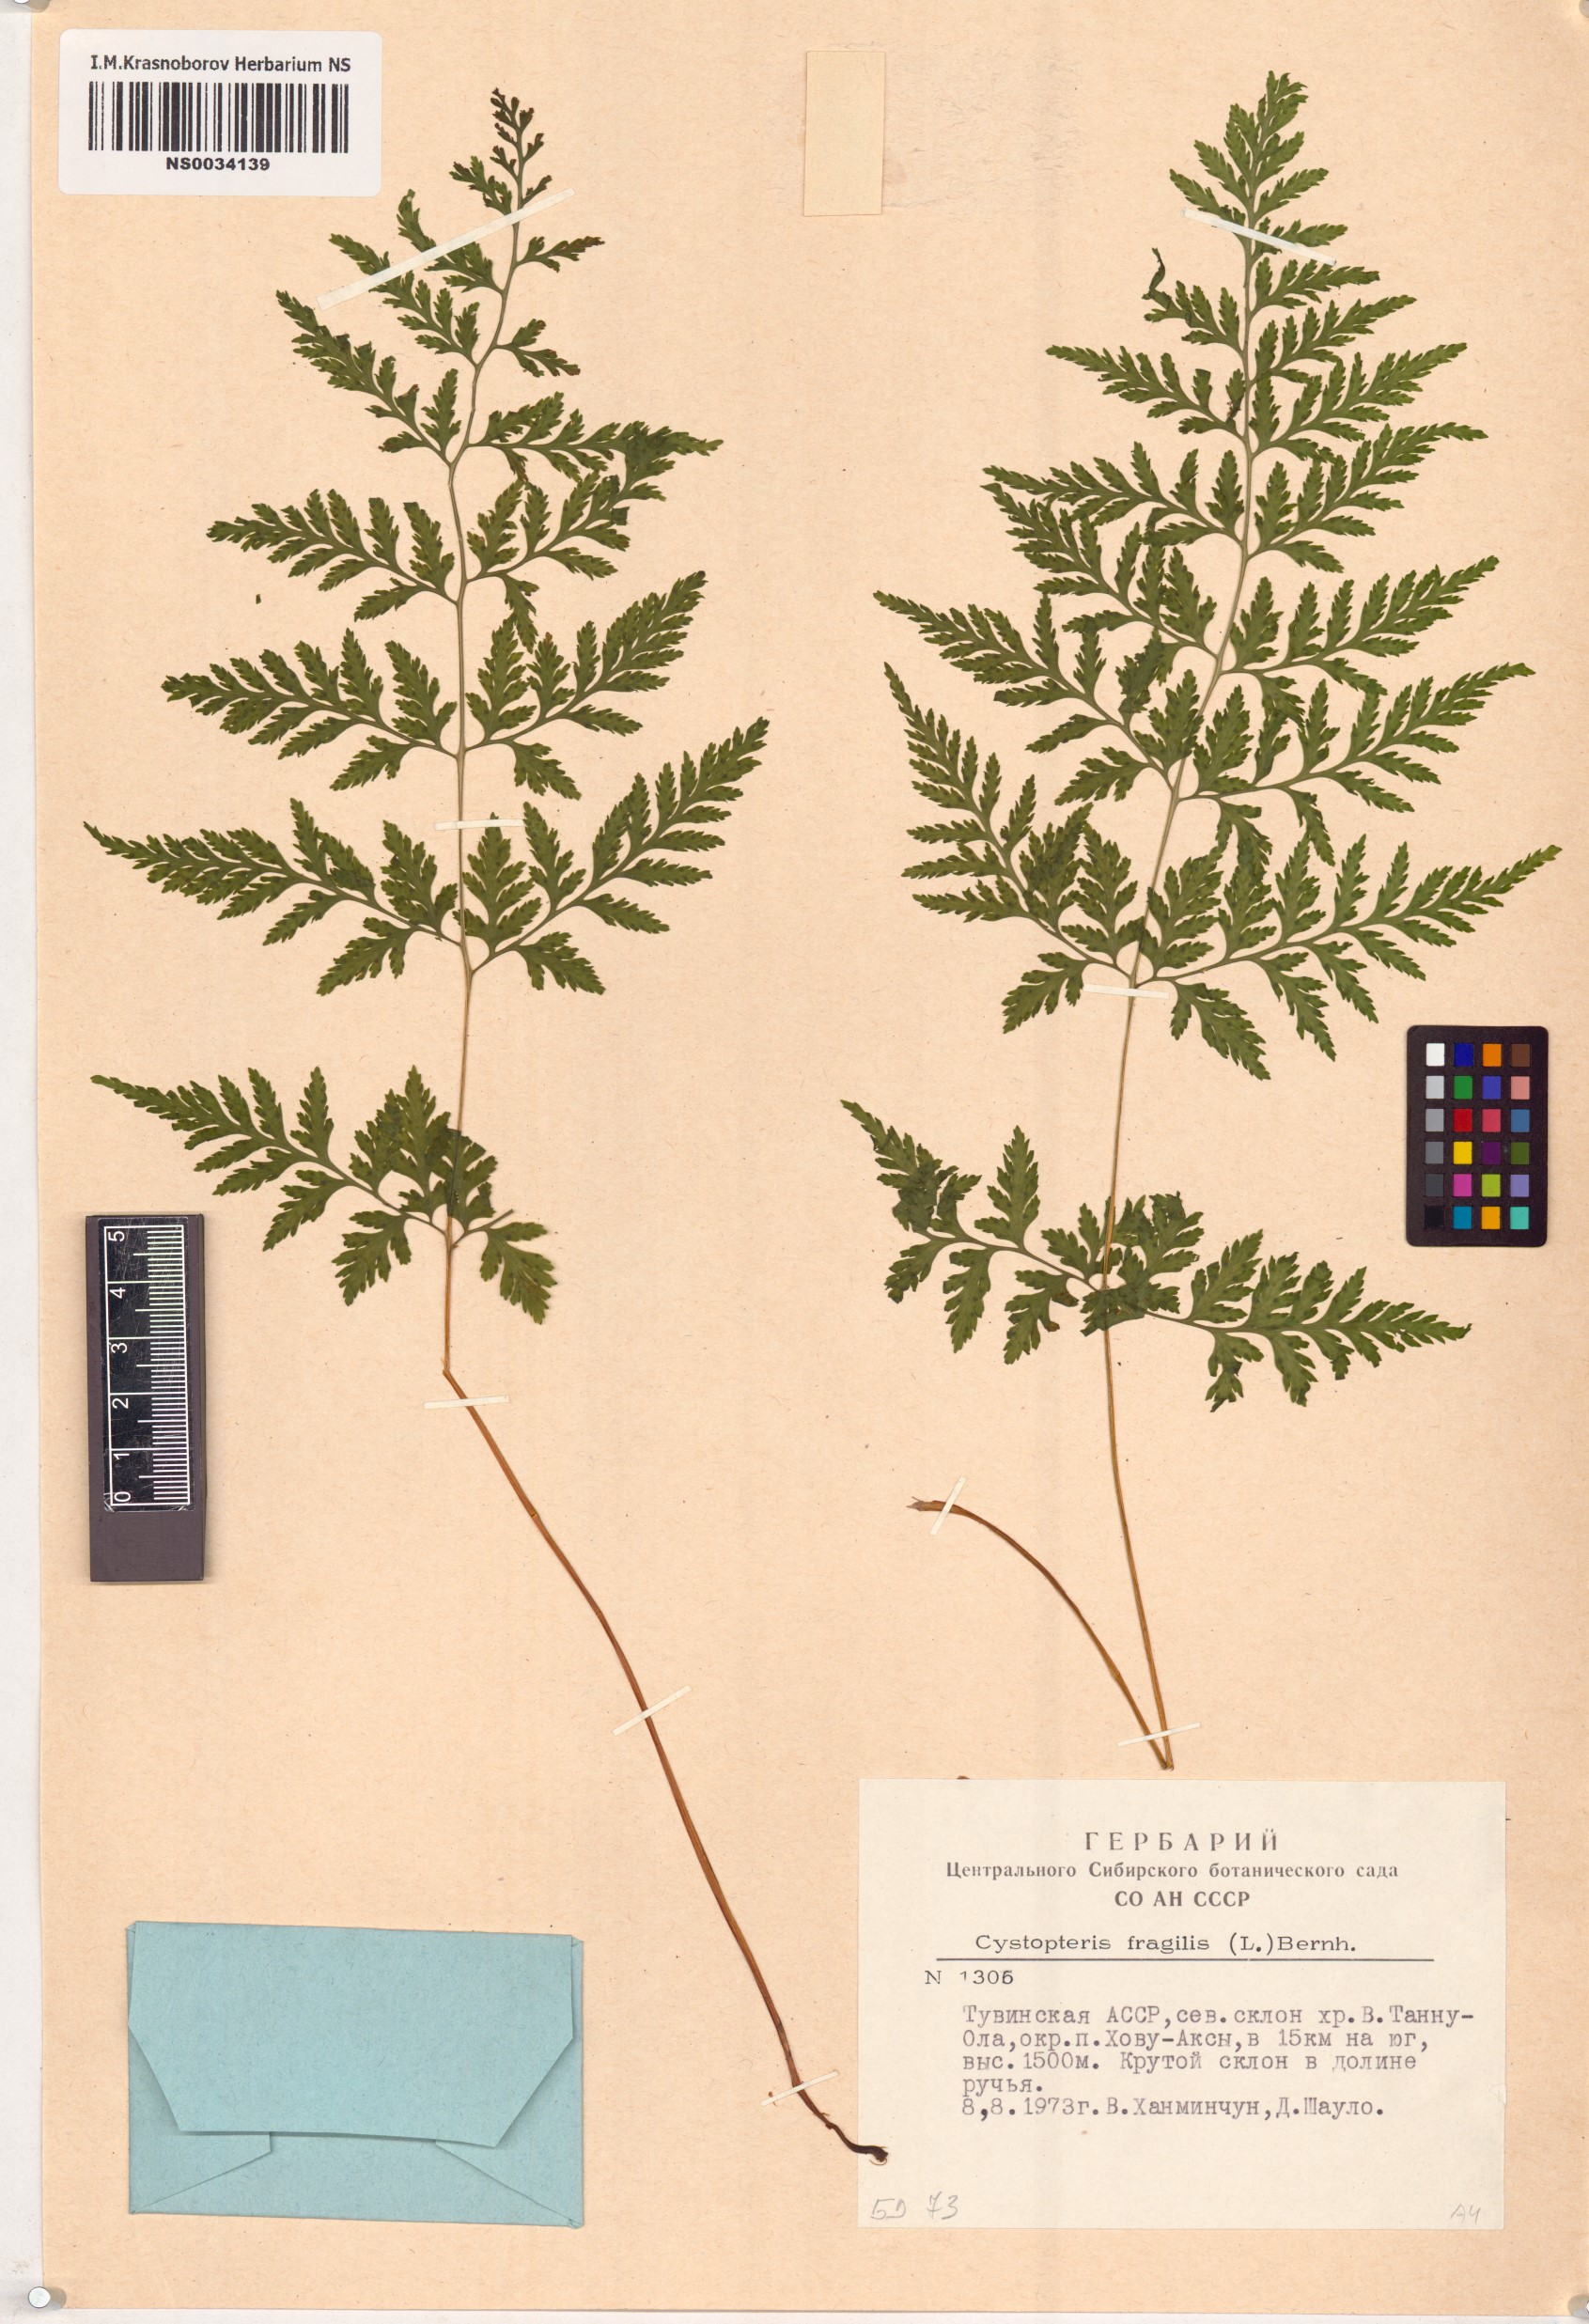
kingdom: Plantae
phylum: Tracheophyta
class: Polypodiopsida
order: Polypodiales
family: Cystopteridaceae
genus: Cystopteris
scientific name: Cystopteris fragilis
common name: Brittle bladder fern
